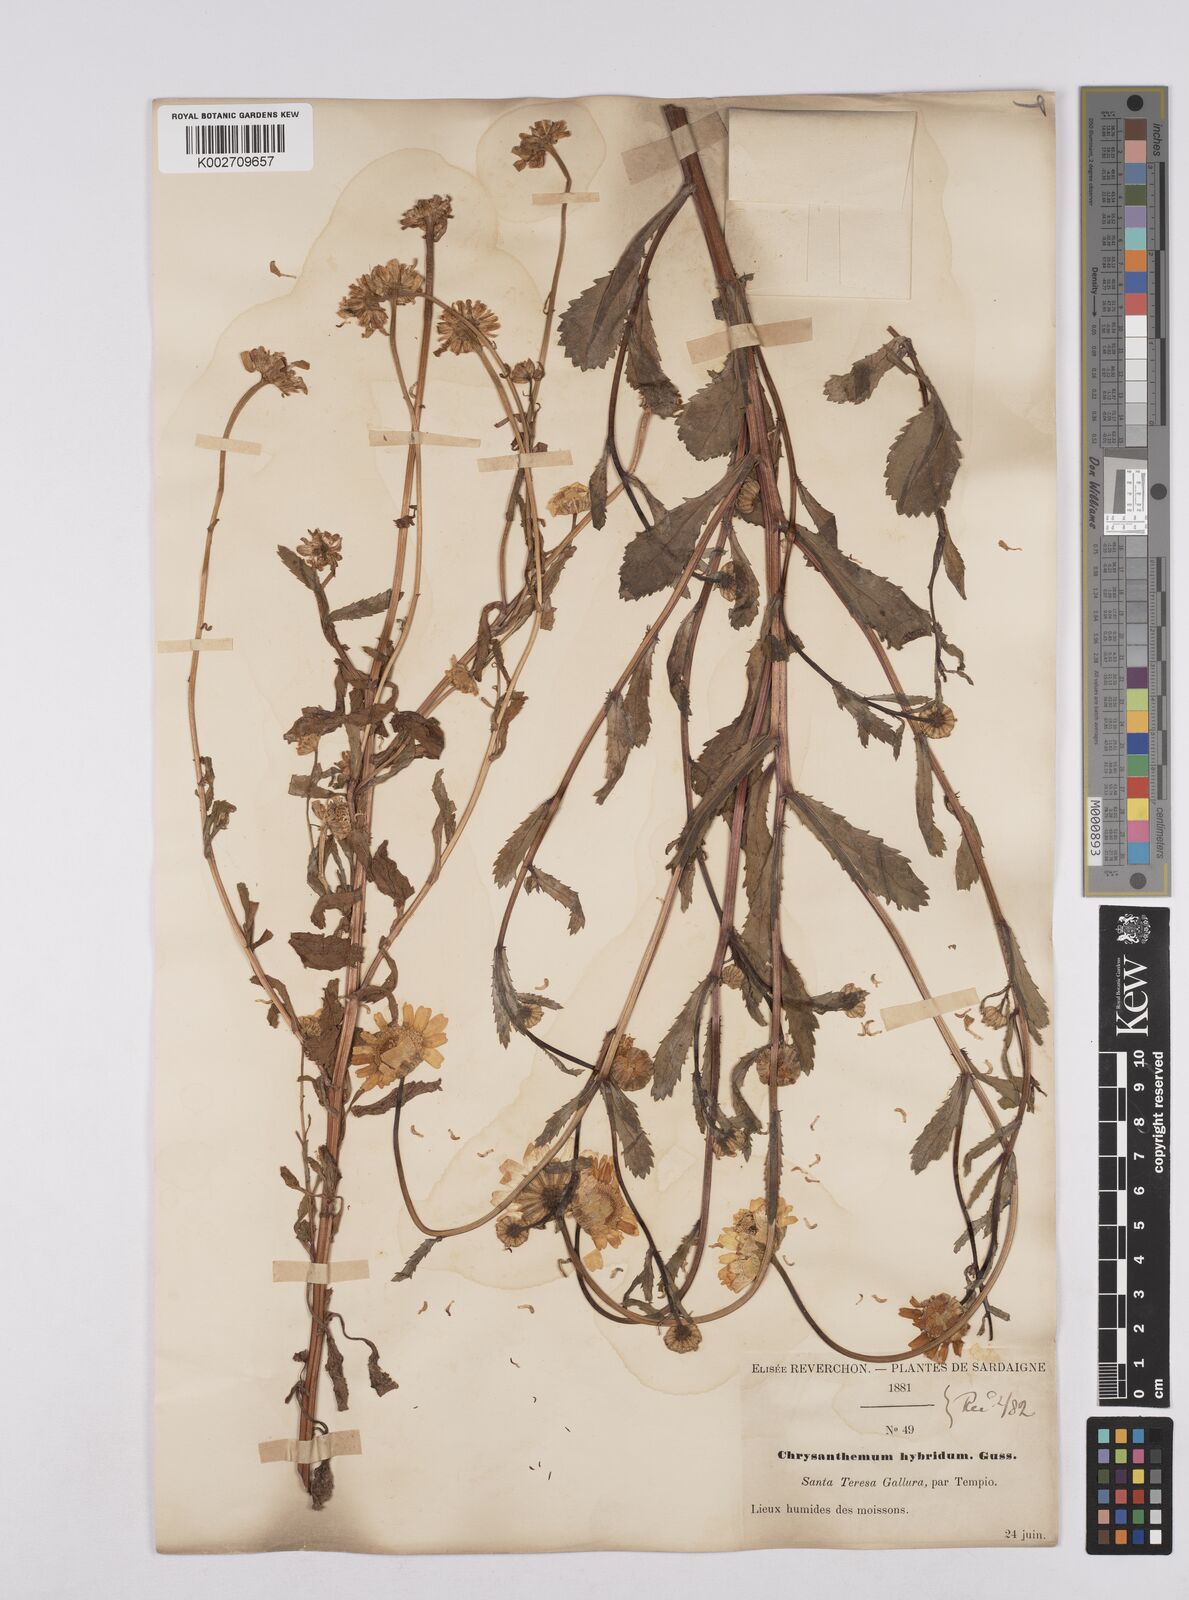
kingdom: Plantae
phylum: Tracheophyta
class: Magnoliopsida
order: Asterales
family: Asteraceae
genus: Coleostephus
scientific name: Coleostephus paludosus
